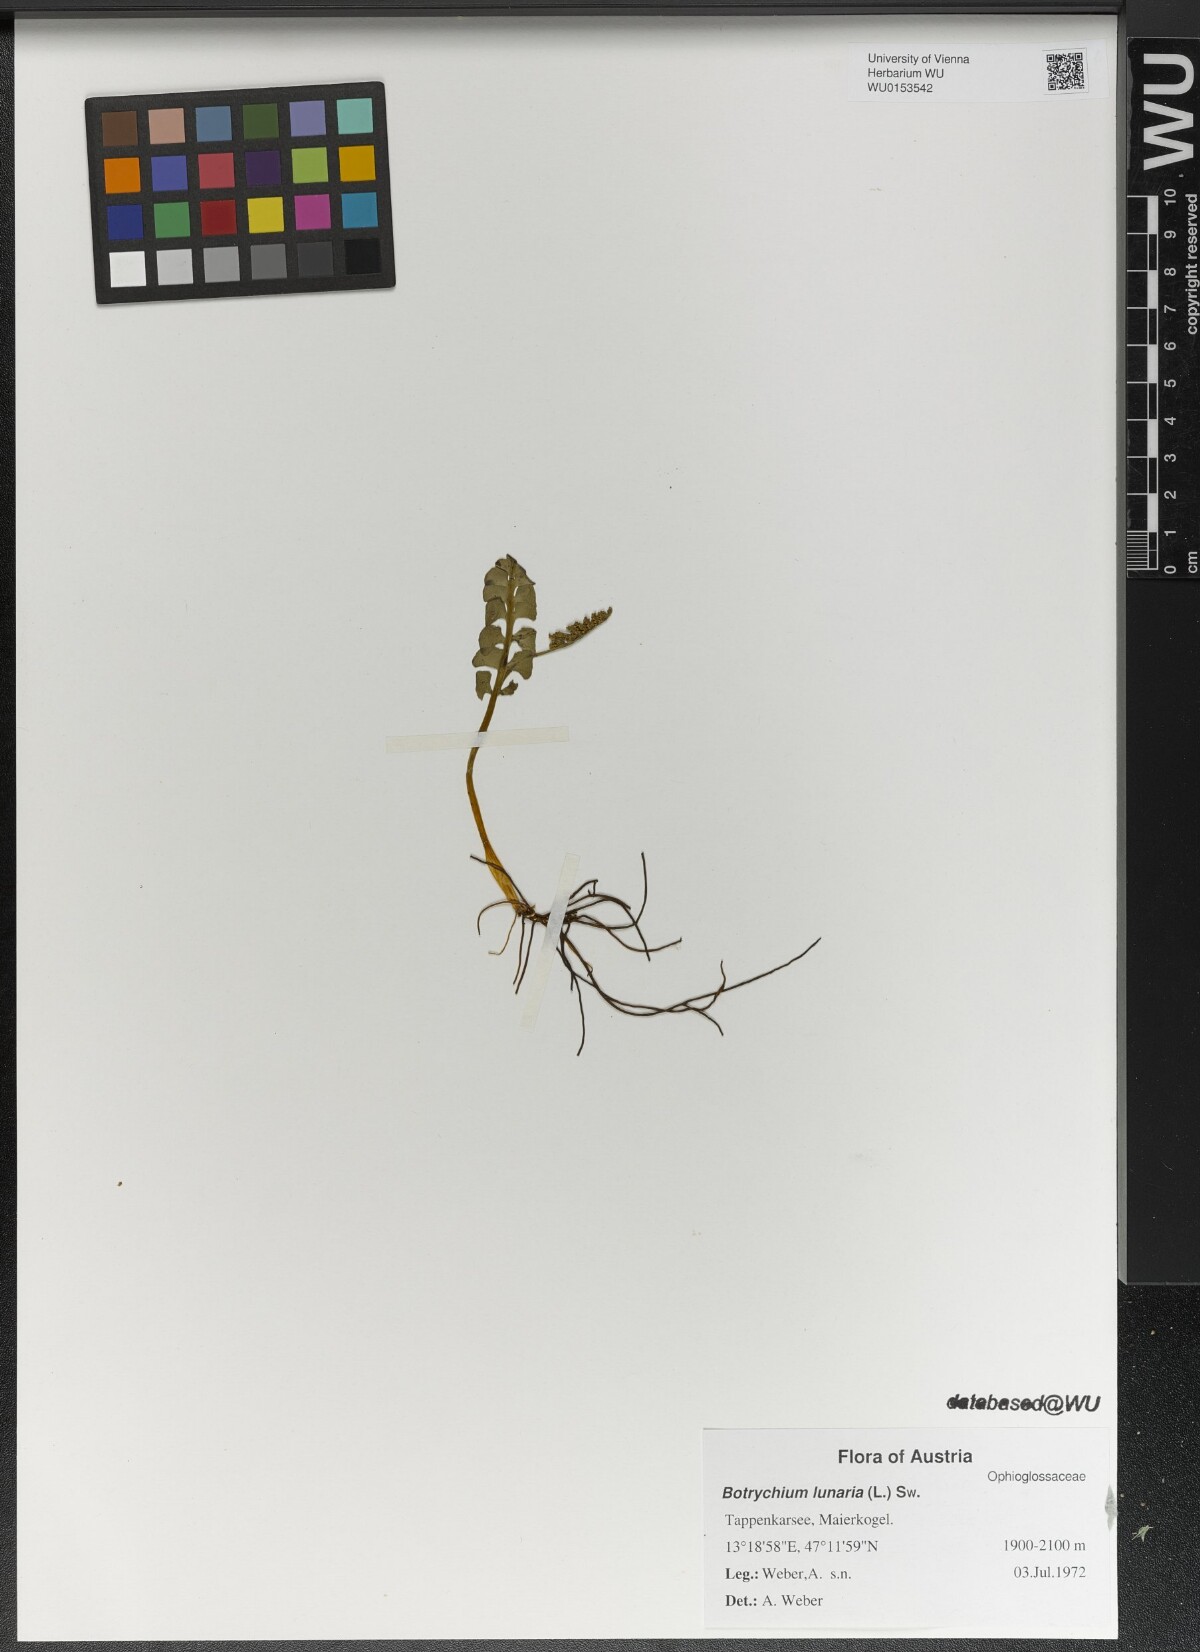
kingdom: Plantae
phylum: Tracheophyta
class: Polypodiopsida
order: Ophioglossales
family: Ophioglossaceae
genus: Botrychium
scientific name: Botrychium lunaria
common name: Moonwort
